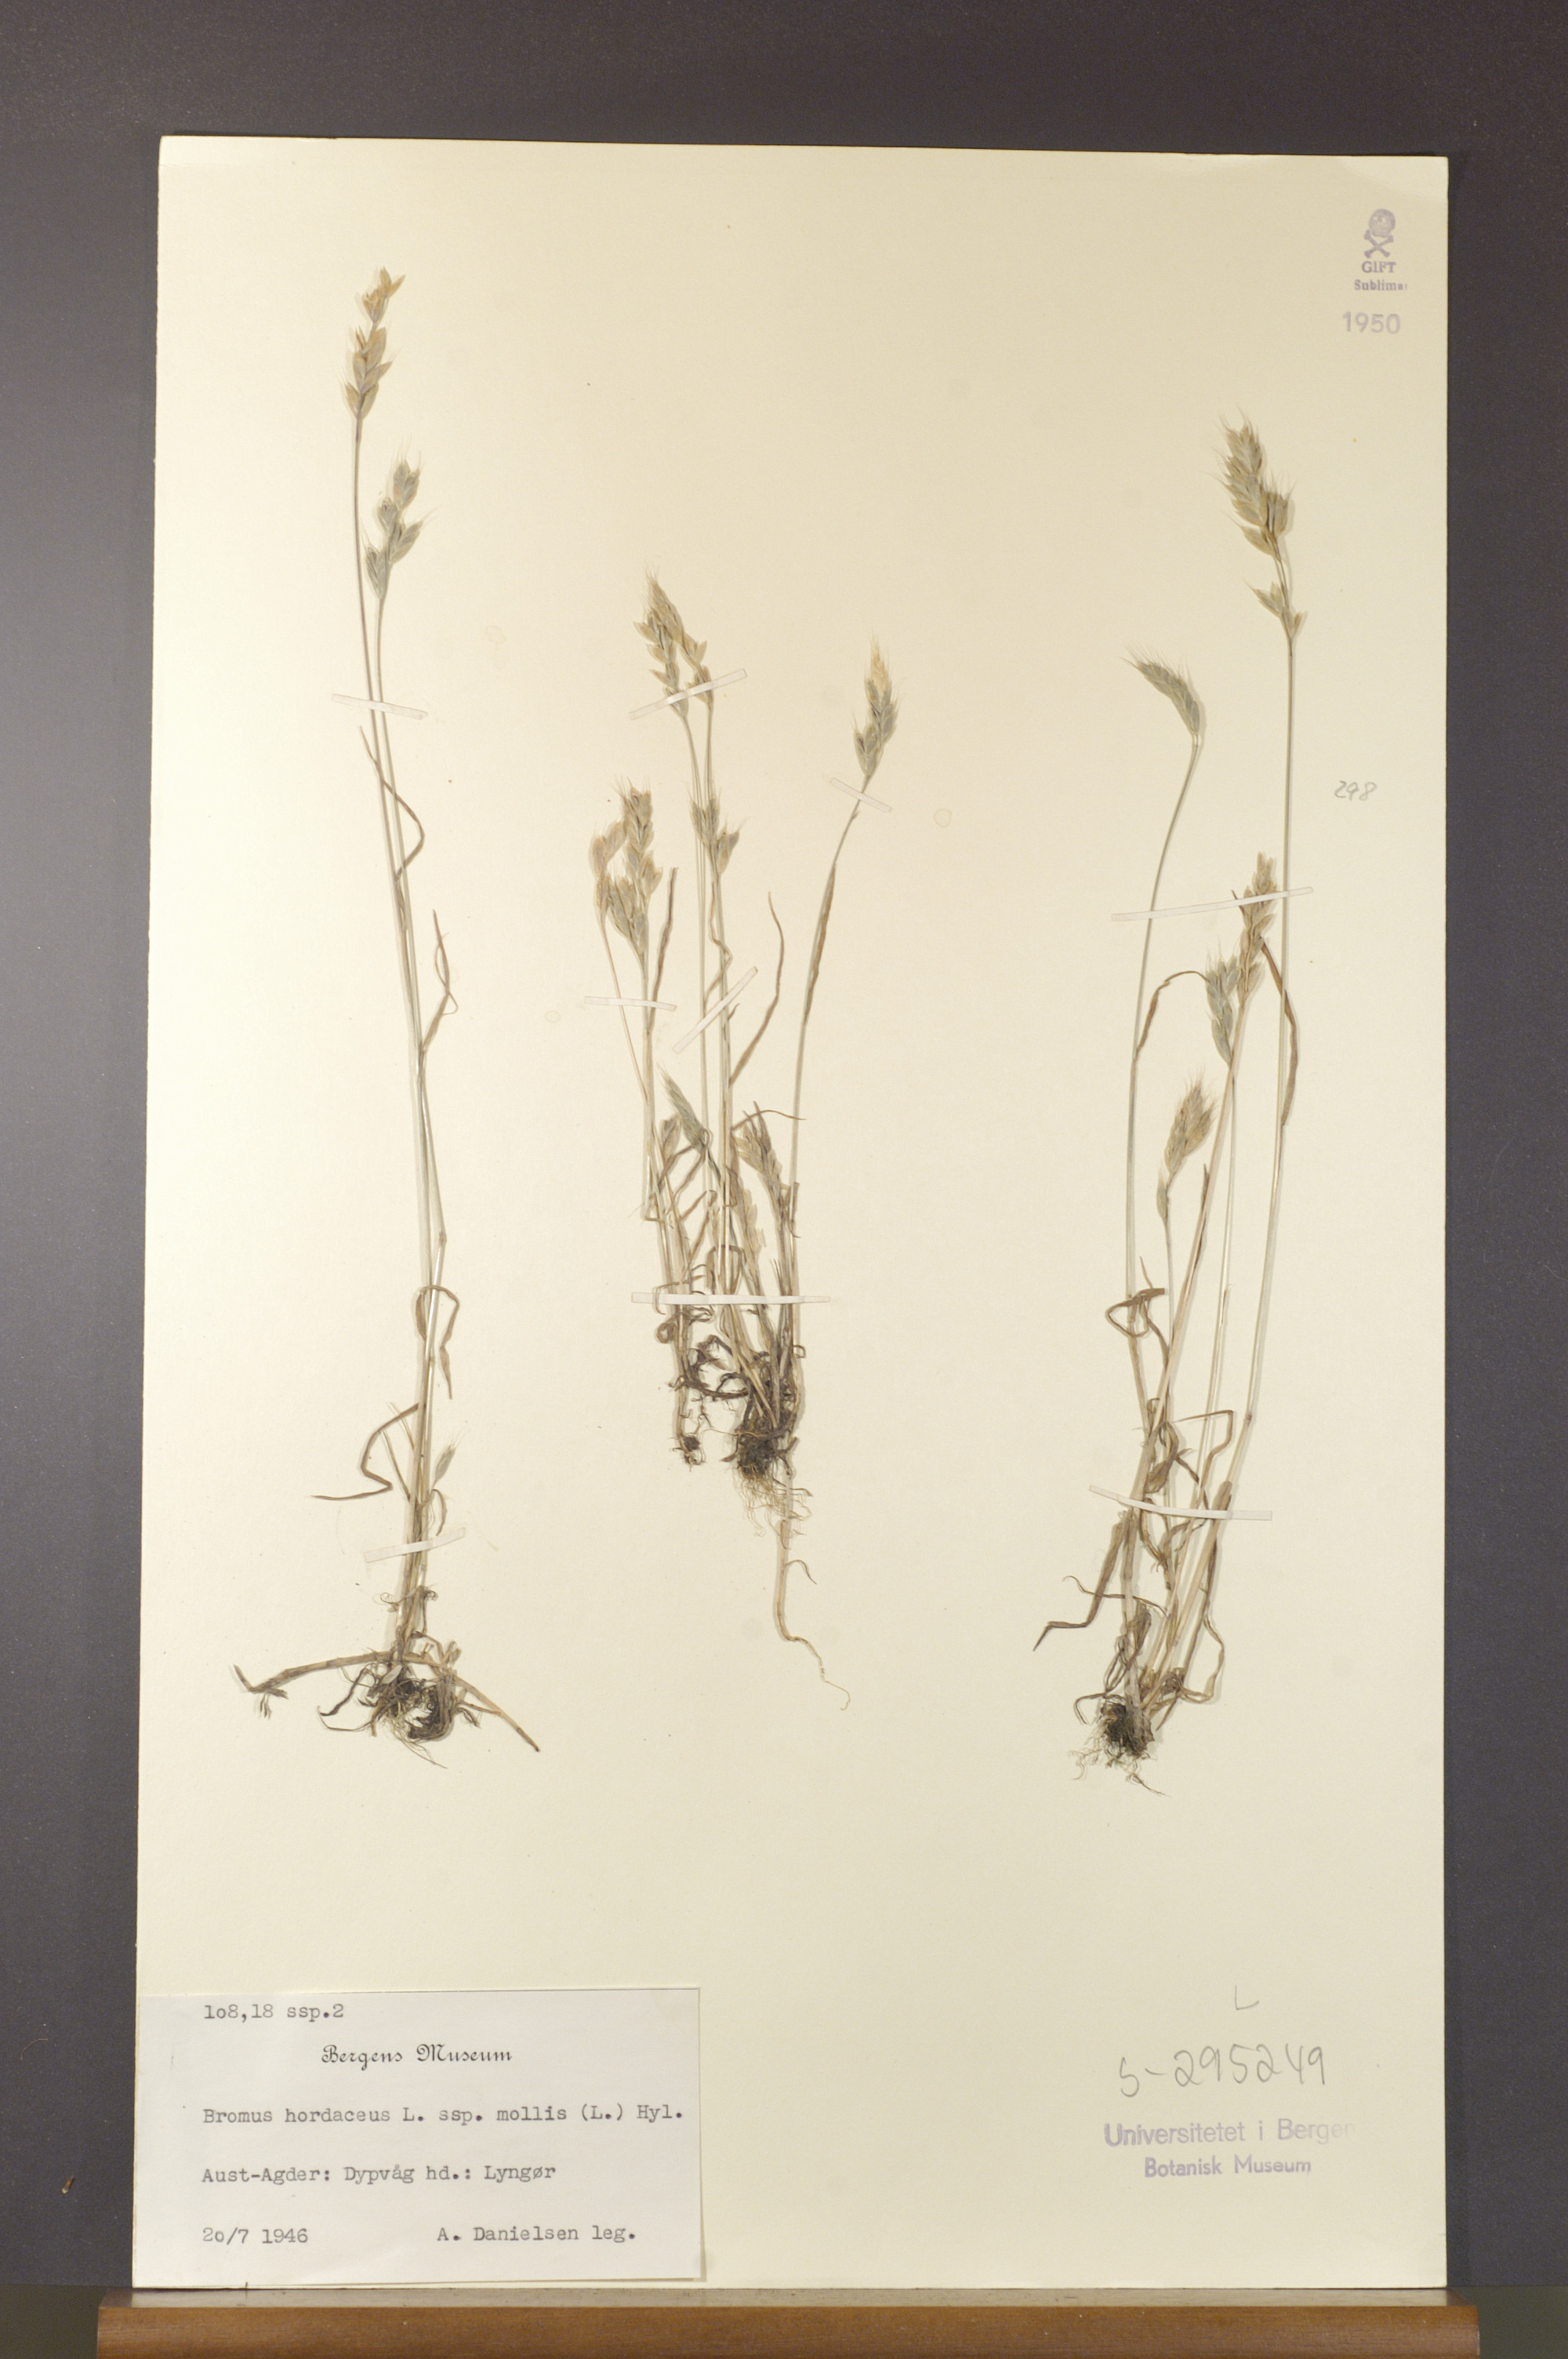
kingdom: Plantae
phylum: Tracheophyta
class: Liliopsida
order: Poales
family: Poaceae
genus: Bromus
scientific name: Bromus hordeaceus
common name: Soft brome
